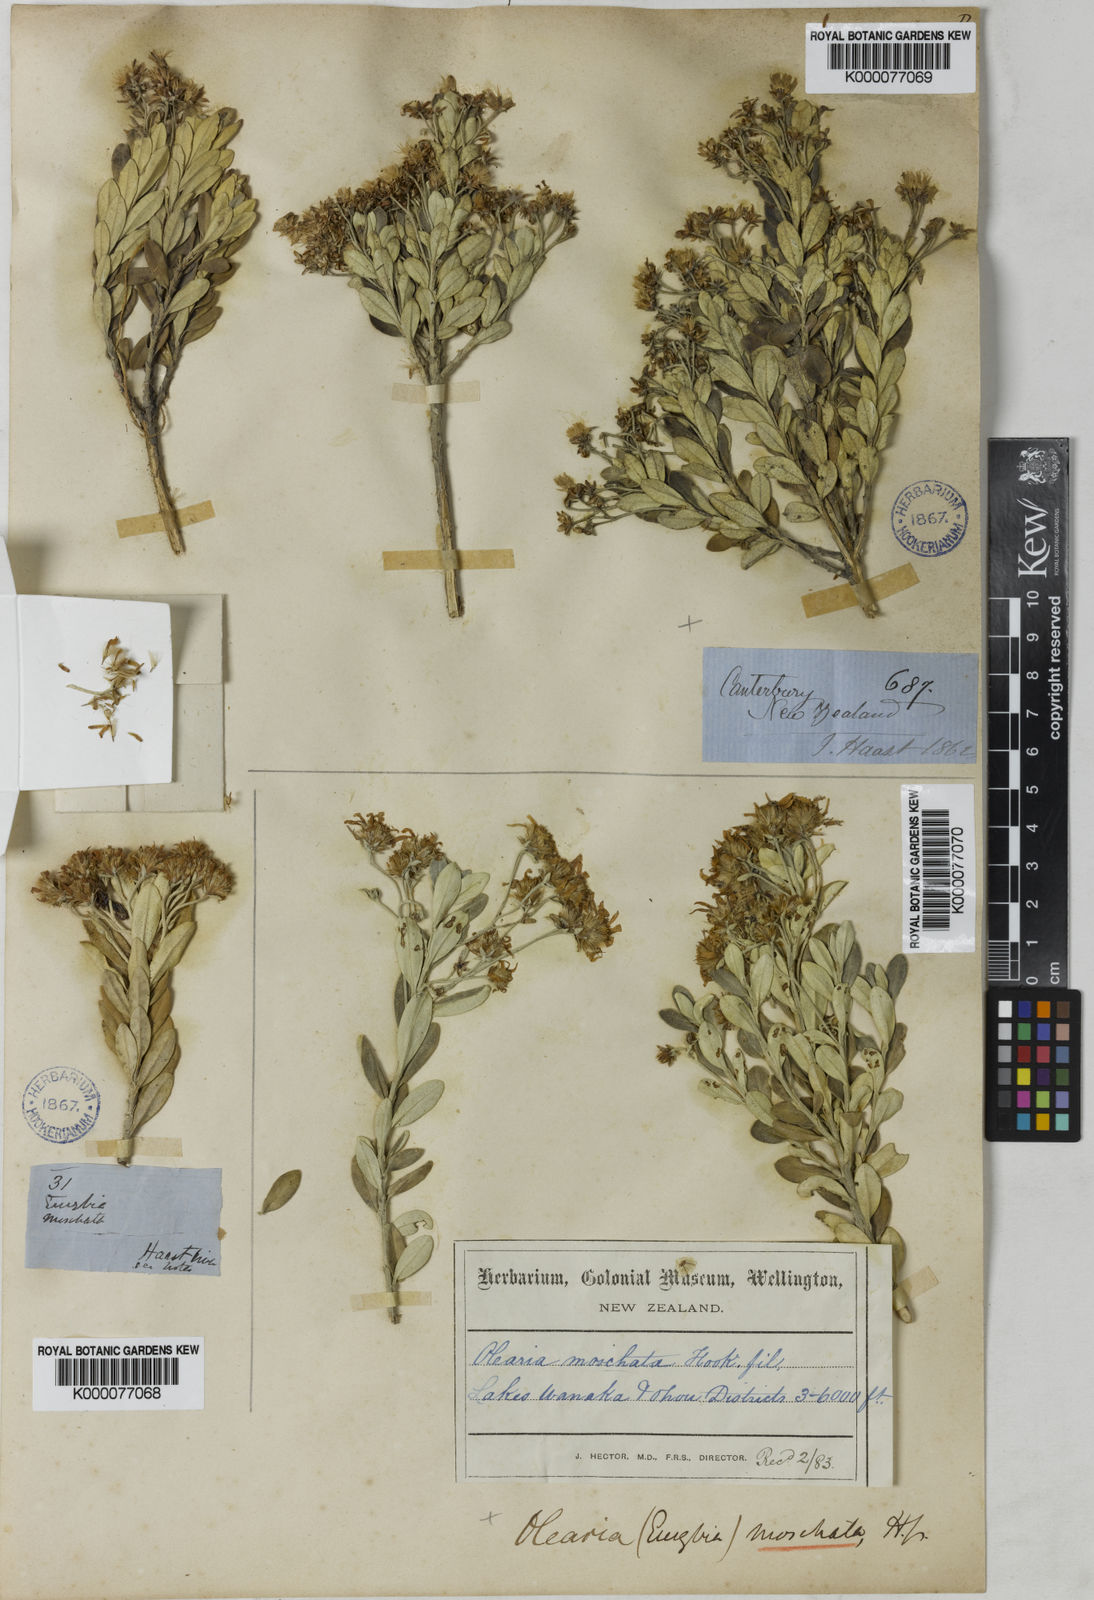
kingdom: Plantae
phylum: Tracheophyta
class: Magnoliopsida
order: Asterales
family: Asteraceae
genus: Olearia
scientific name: Olearia moschata
